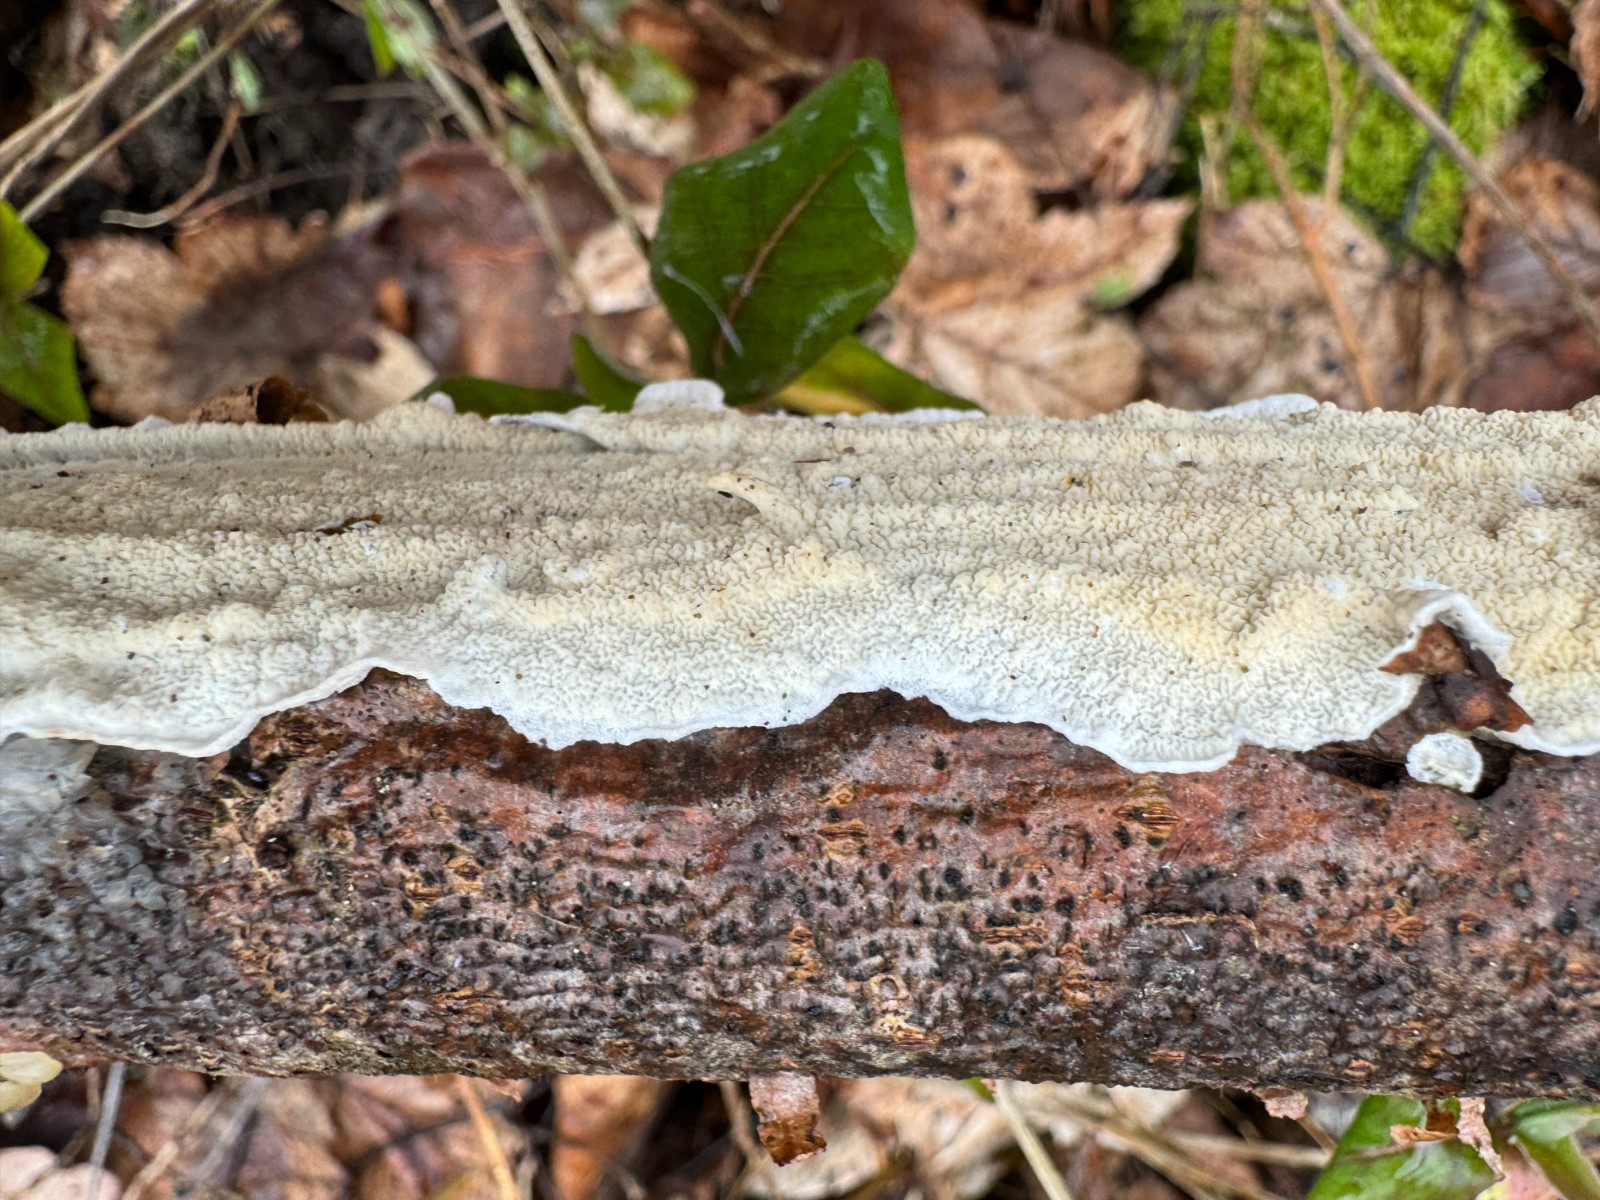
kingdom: Fungi
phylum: Basidiomycota
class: Agaricomycetes
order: Polyporales
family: Irpicaceae
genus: Byssomerulius
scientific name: Byssomerulius corium
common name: læder-åresvamp
